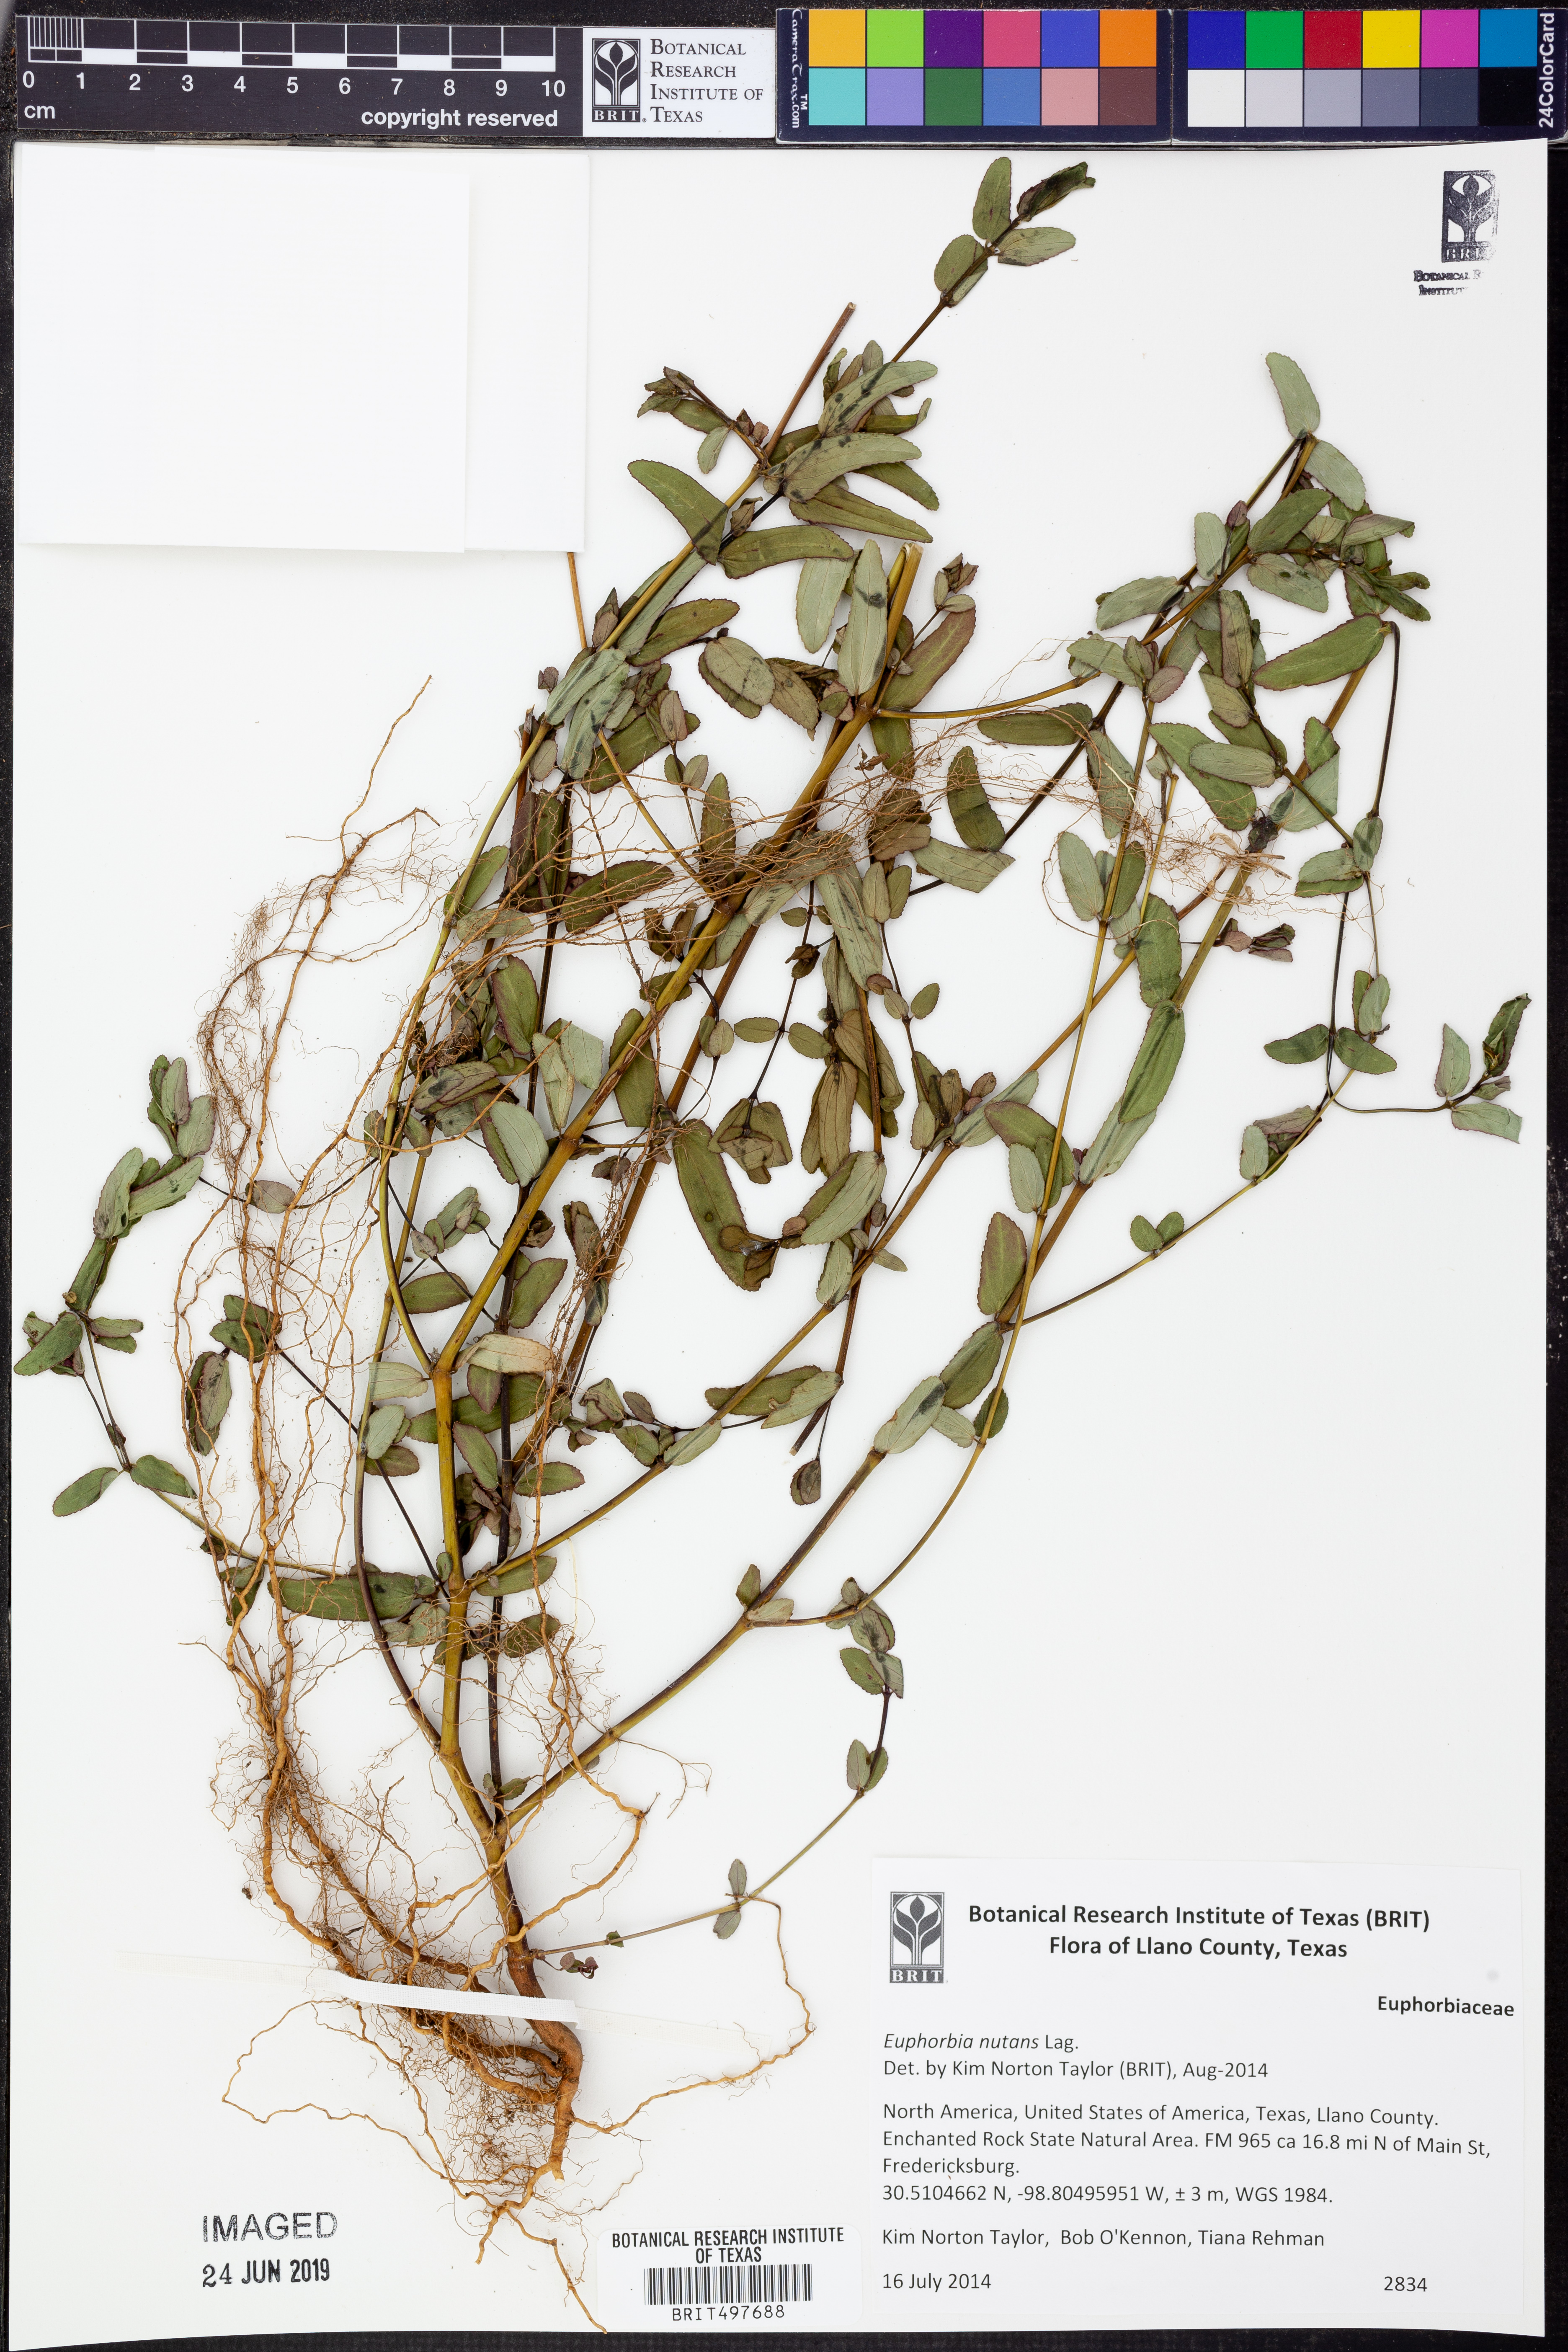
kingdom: Plantae
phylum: Tracheophyta
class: Magnoliopsida
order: Malpighiales
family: Euphorbiaceae
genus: Euphorbia
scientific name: Euphorbia nutans
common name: Eyebane
